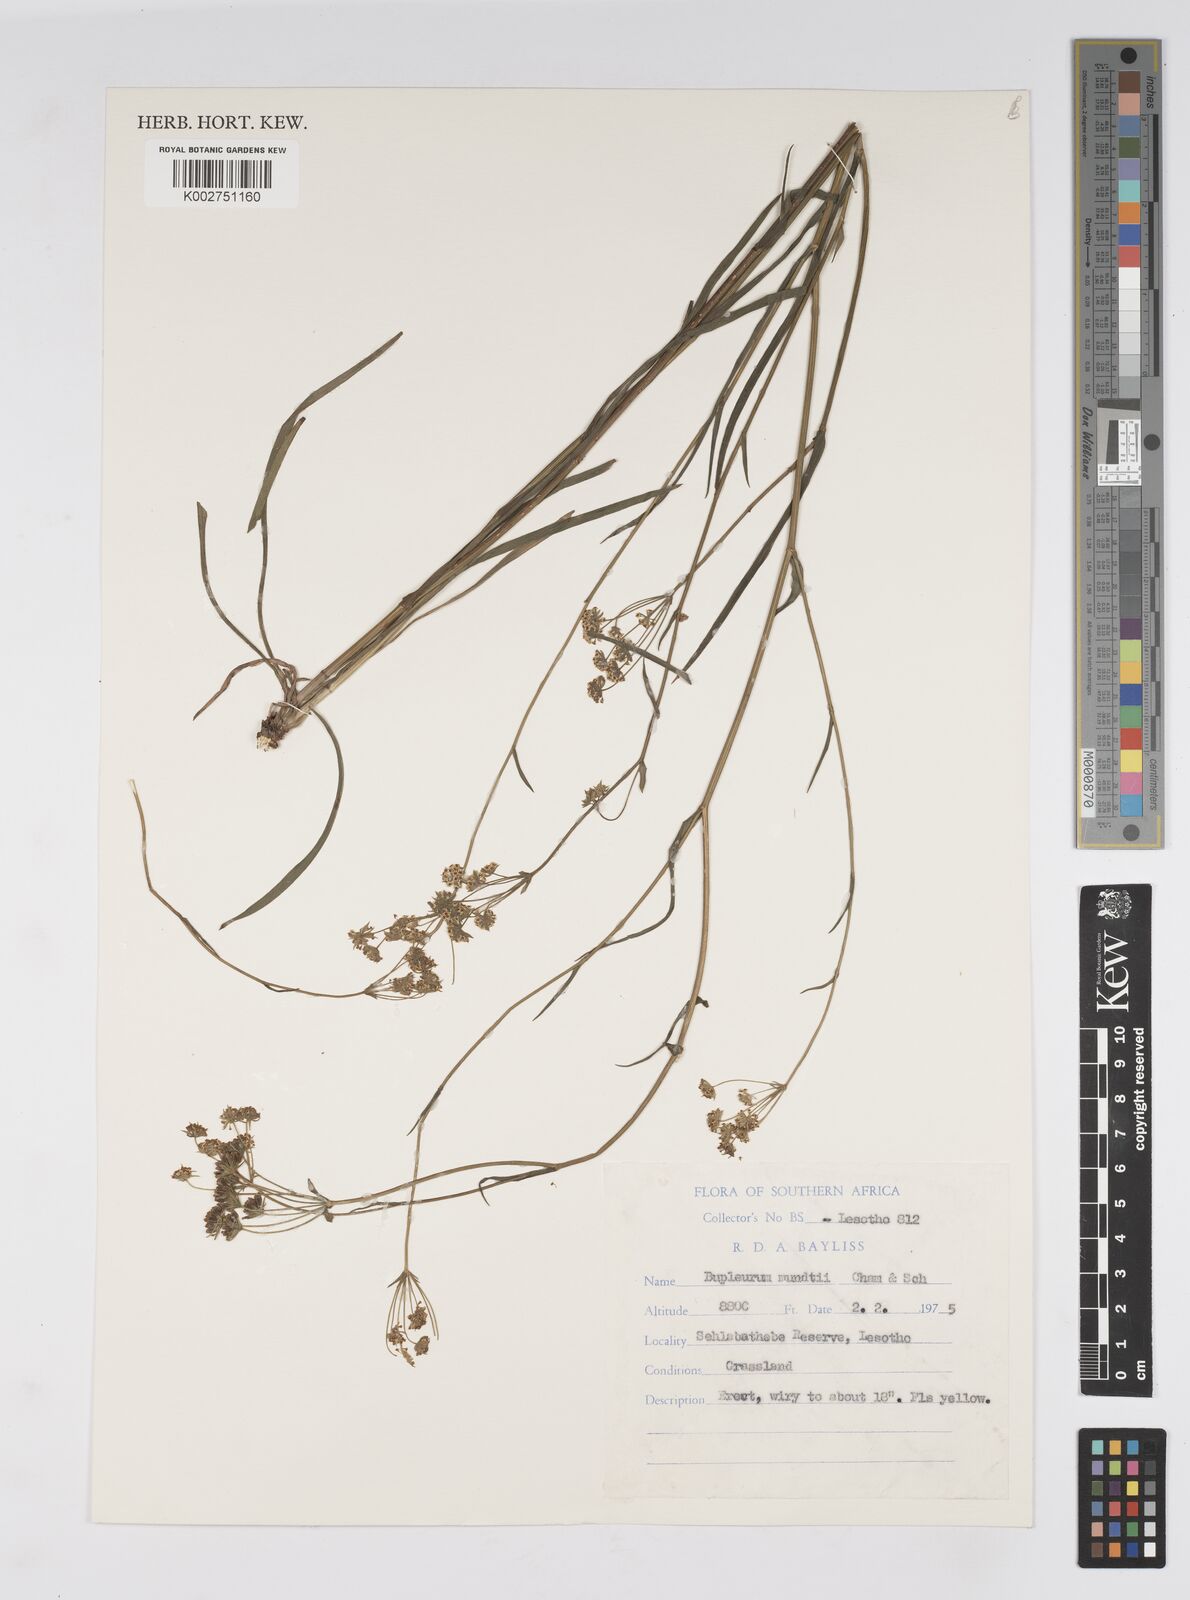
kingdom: Plantae
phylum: Tracheophyta
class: Magnoliopsida
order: Apiales
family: Apiaceae
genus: Bupleurum
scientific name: Bupleurum mundii
